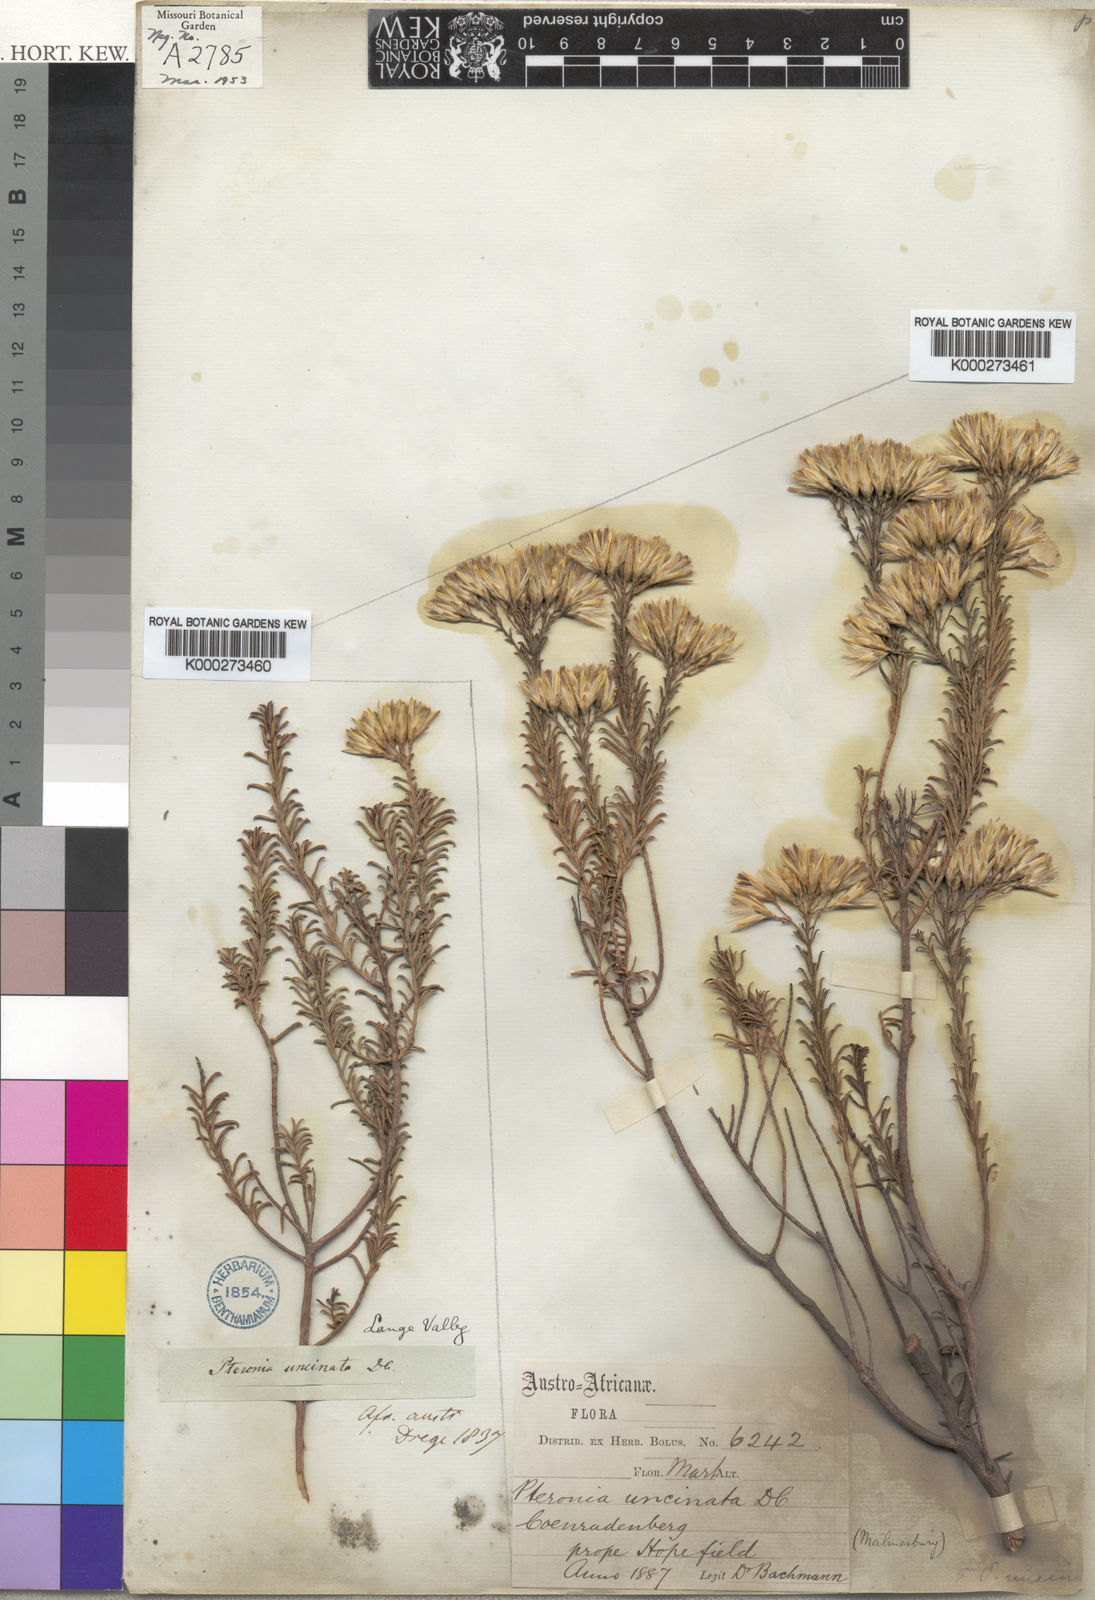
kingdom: Plantae
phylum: Tracheophyta
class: Magnoliopsida
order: Asterales
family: Asteraceae
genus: Pteronia
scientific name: Pteronia uncinata
